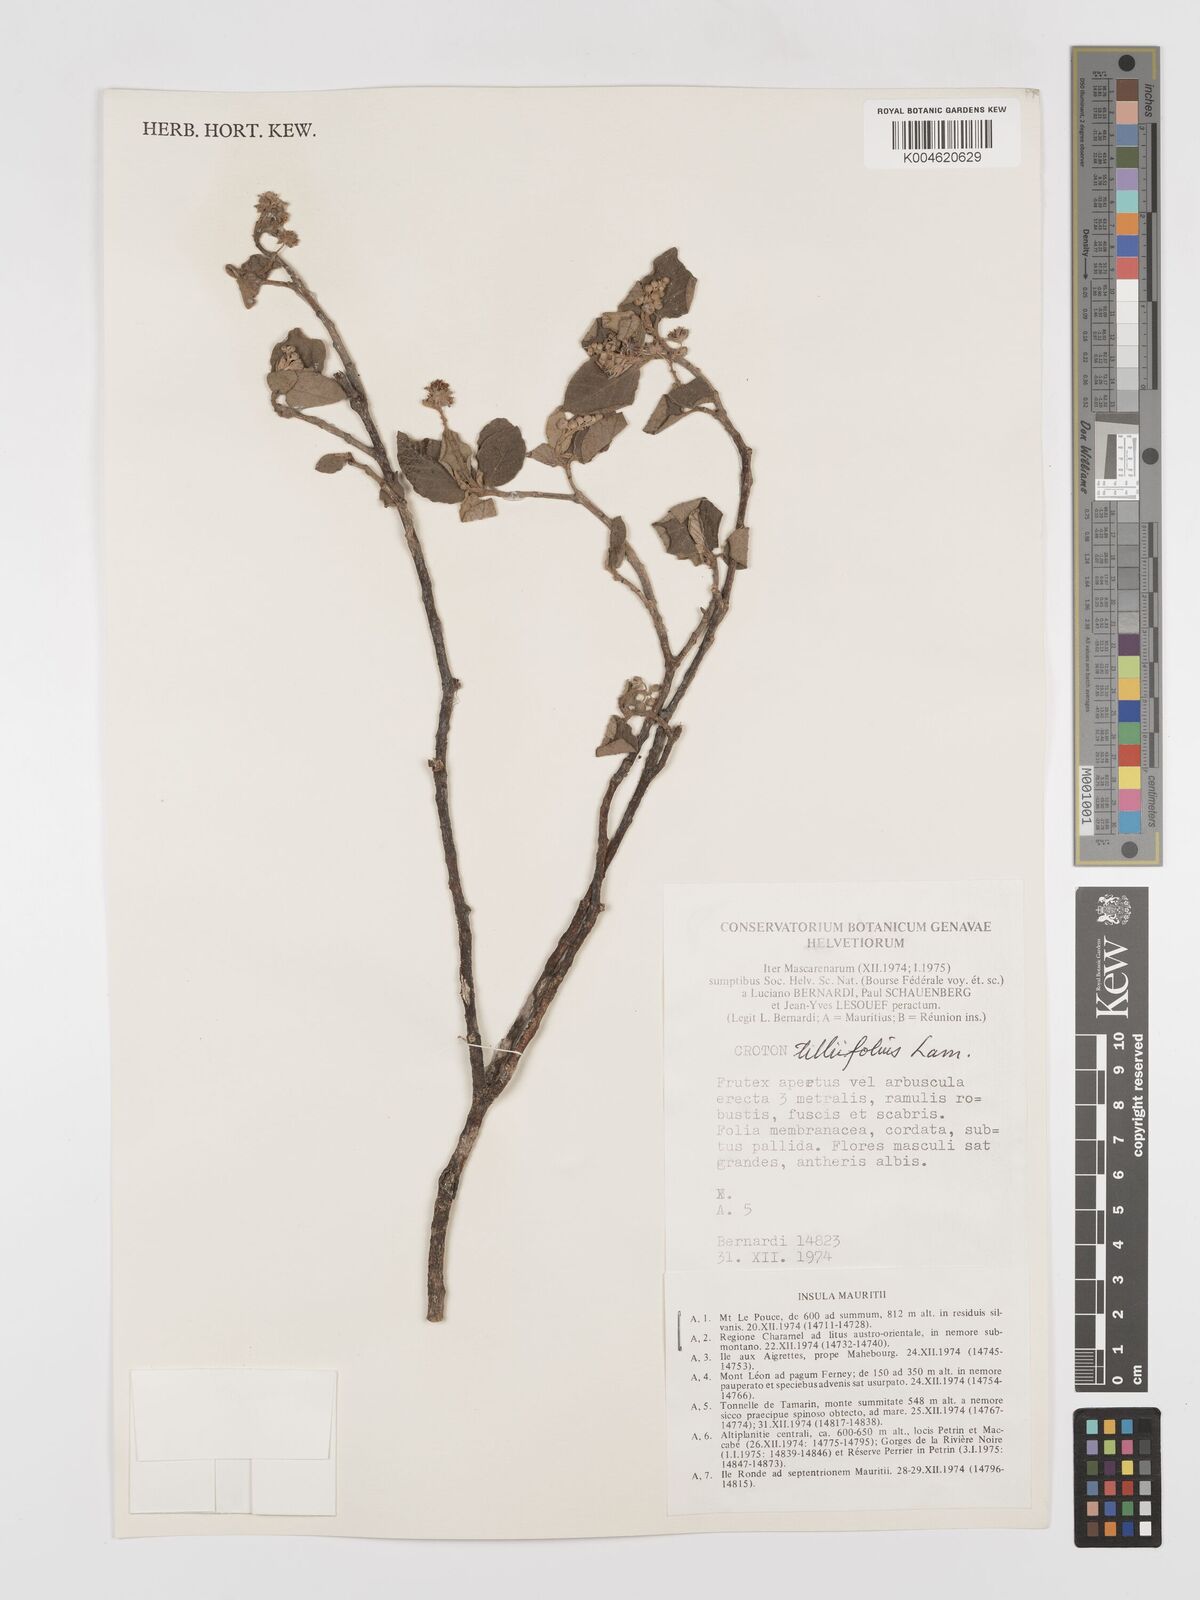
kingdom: Plantae
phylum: Tracheophyta
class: Magnoliopsida
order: Malpighiales
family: Euphorbiaceae
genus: Croton
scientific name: Croton
